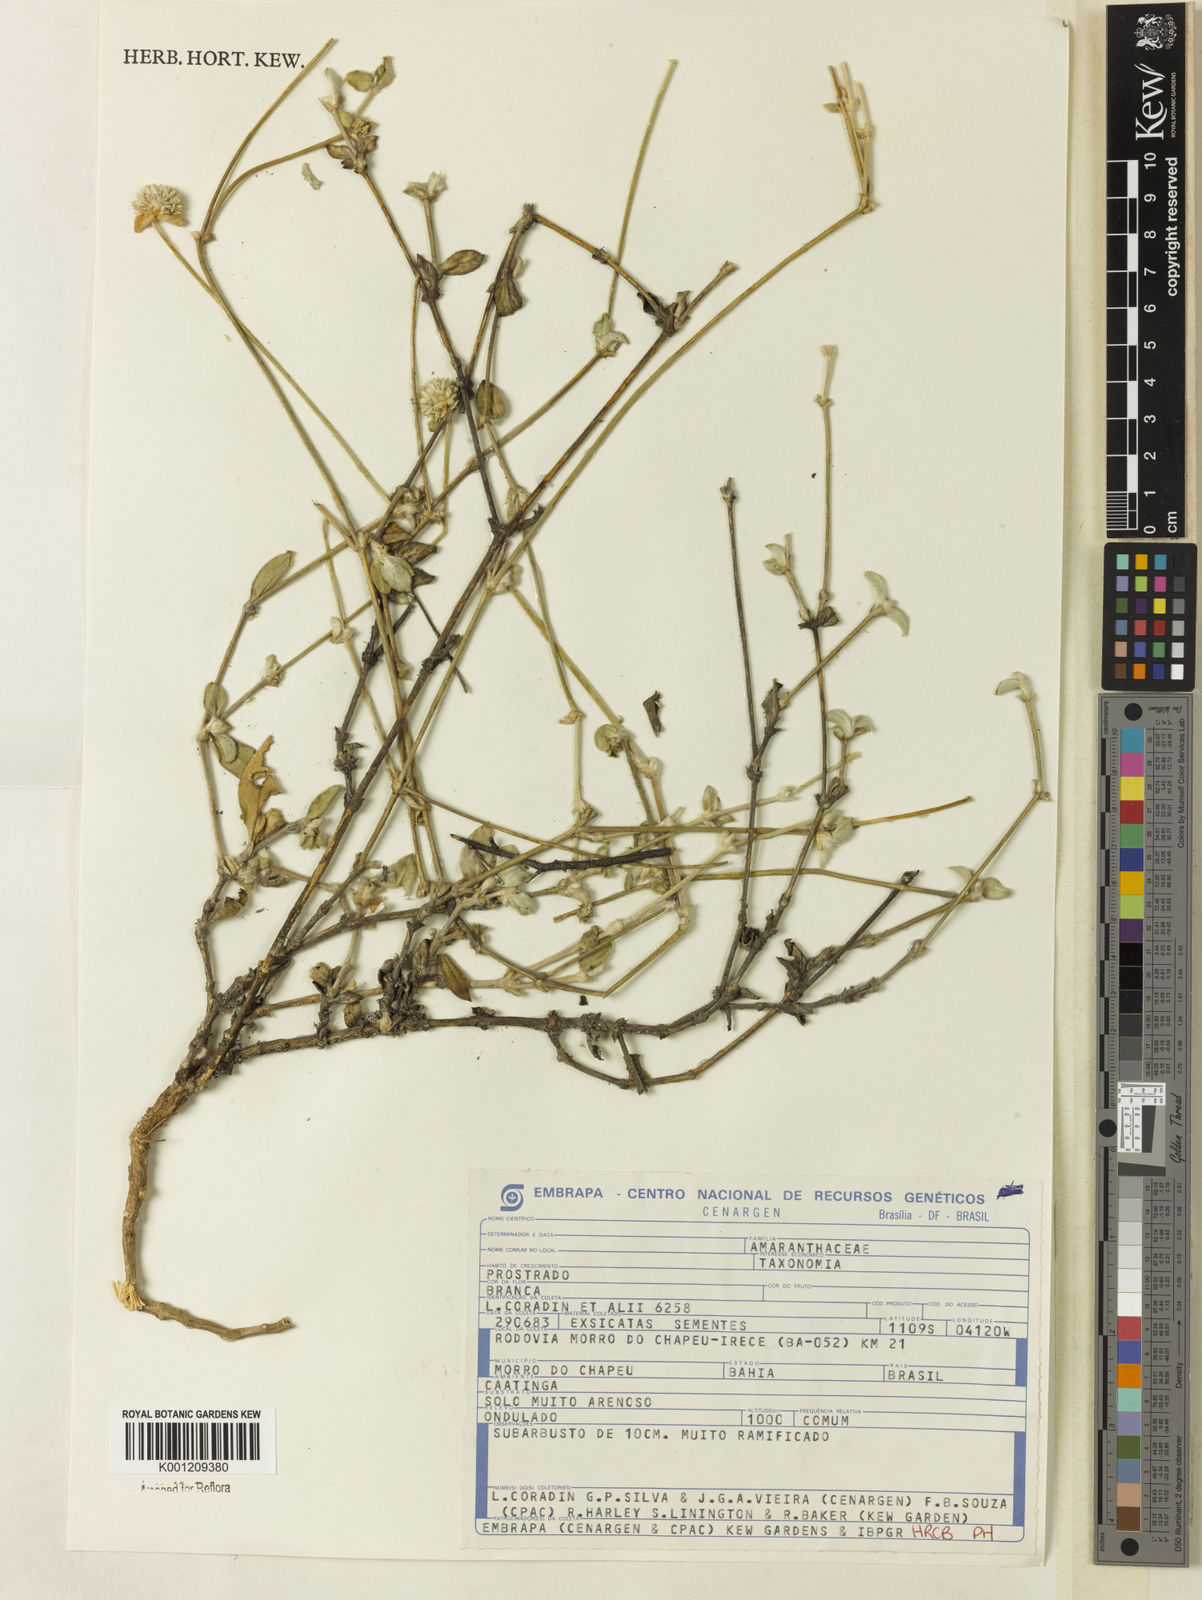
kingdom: Plantae
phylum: Tracheophyta
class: Magnoliopsida
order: Caryophyllales
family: Amaranthaceae
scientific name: Amaranthaceae
